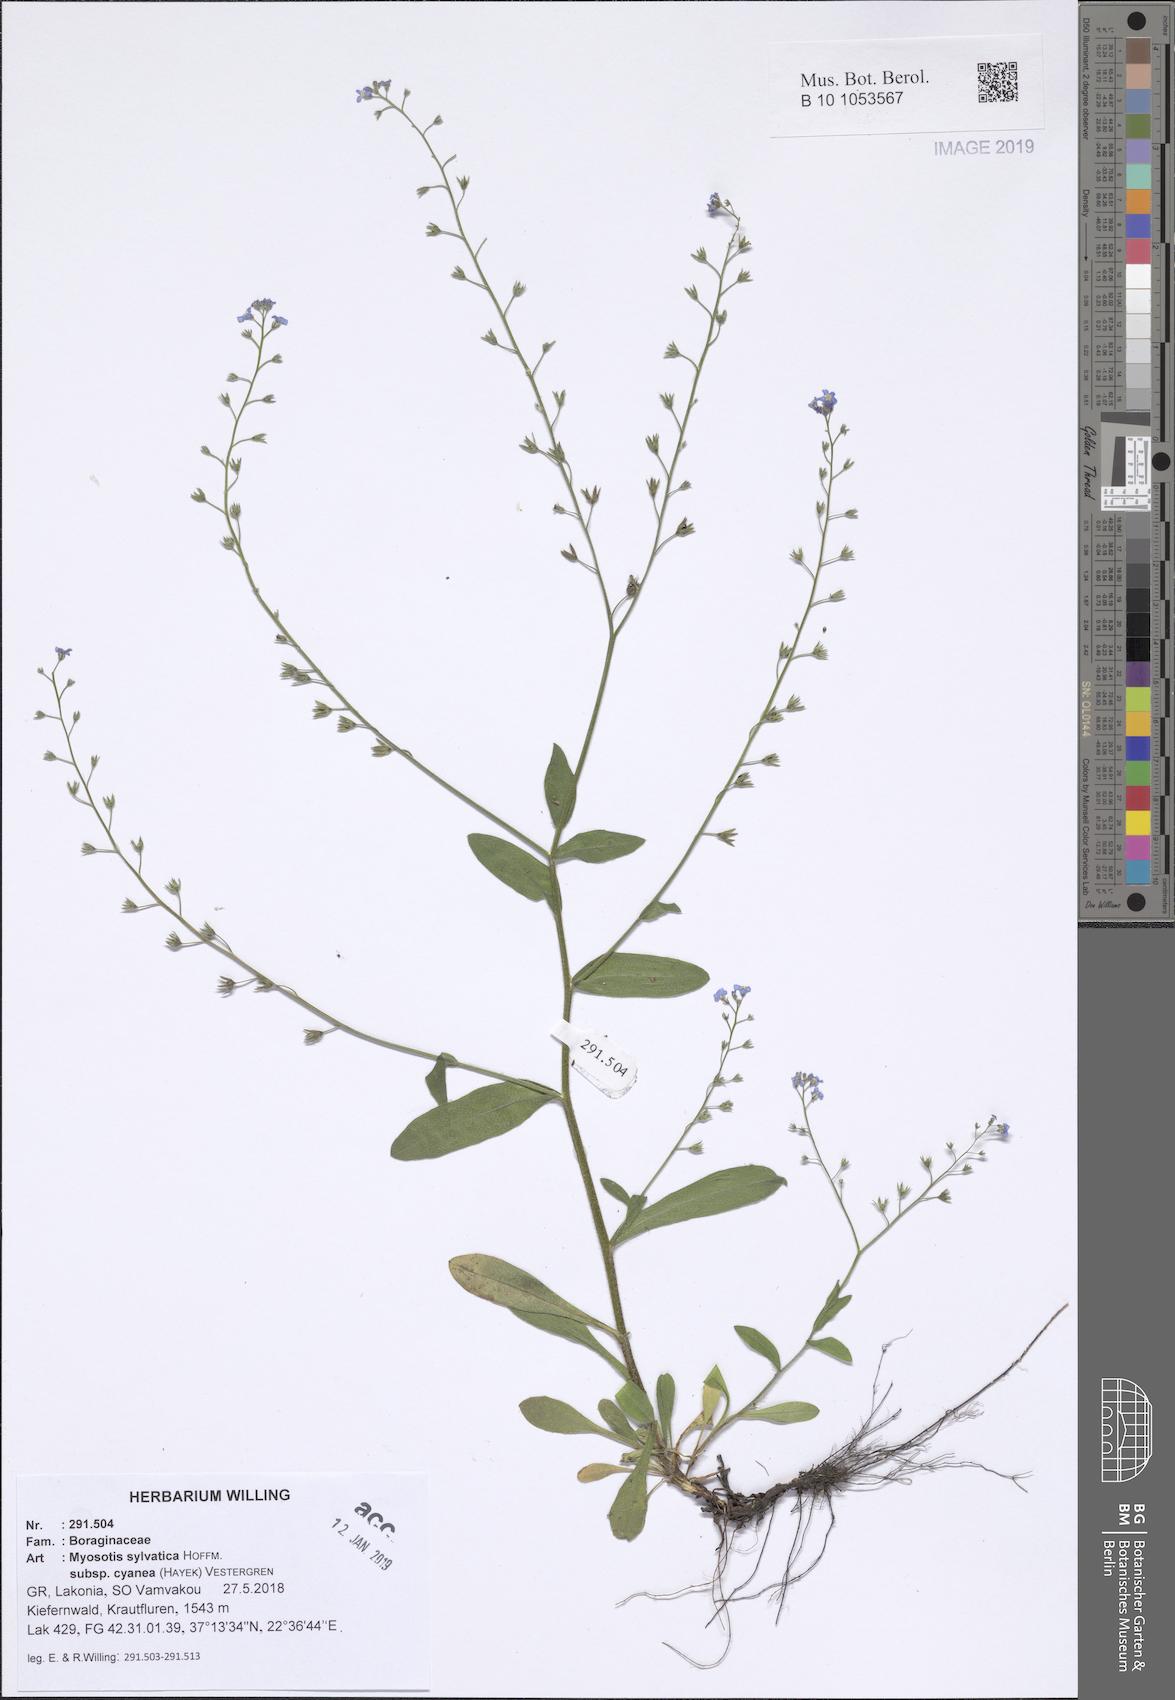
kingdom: Plantae
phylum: Tracheophyta
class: Magnoliopsida
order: Boraginales
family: Boraginaceae
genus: Myosotis
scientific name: Myosotis sylvatica
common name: Wood forget-me-not
